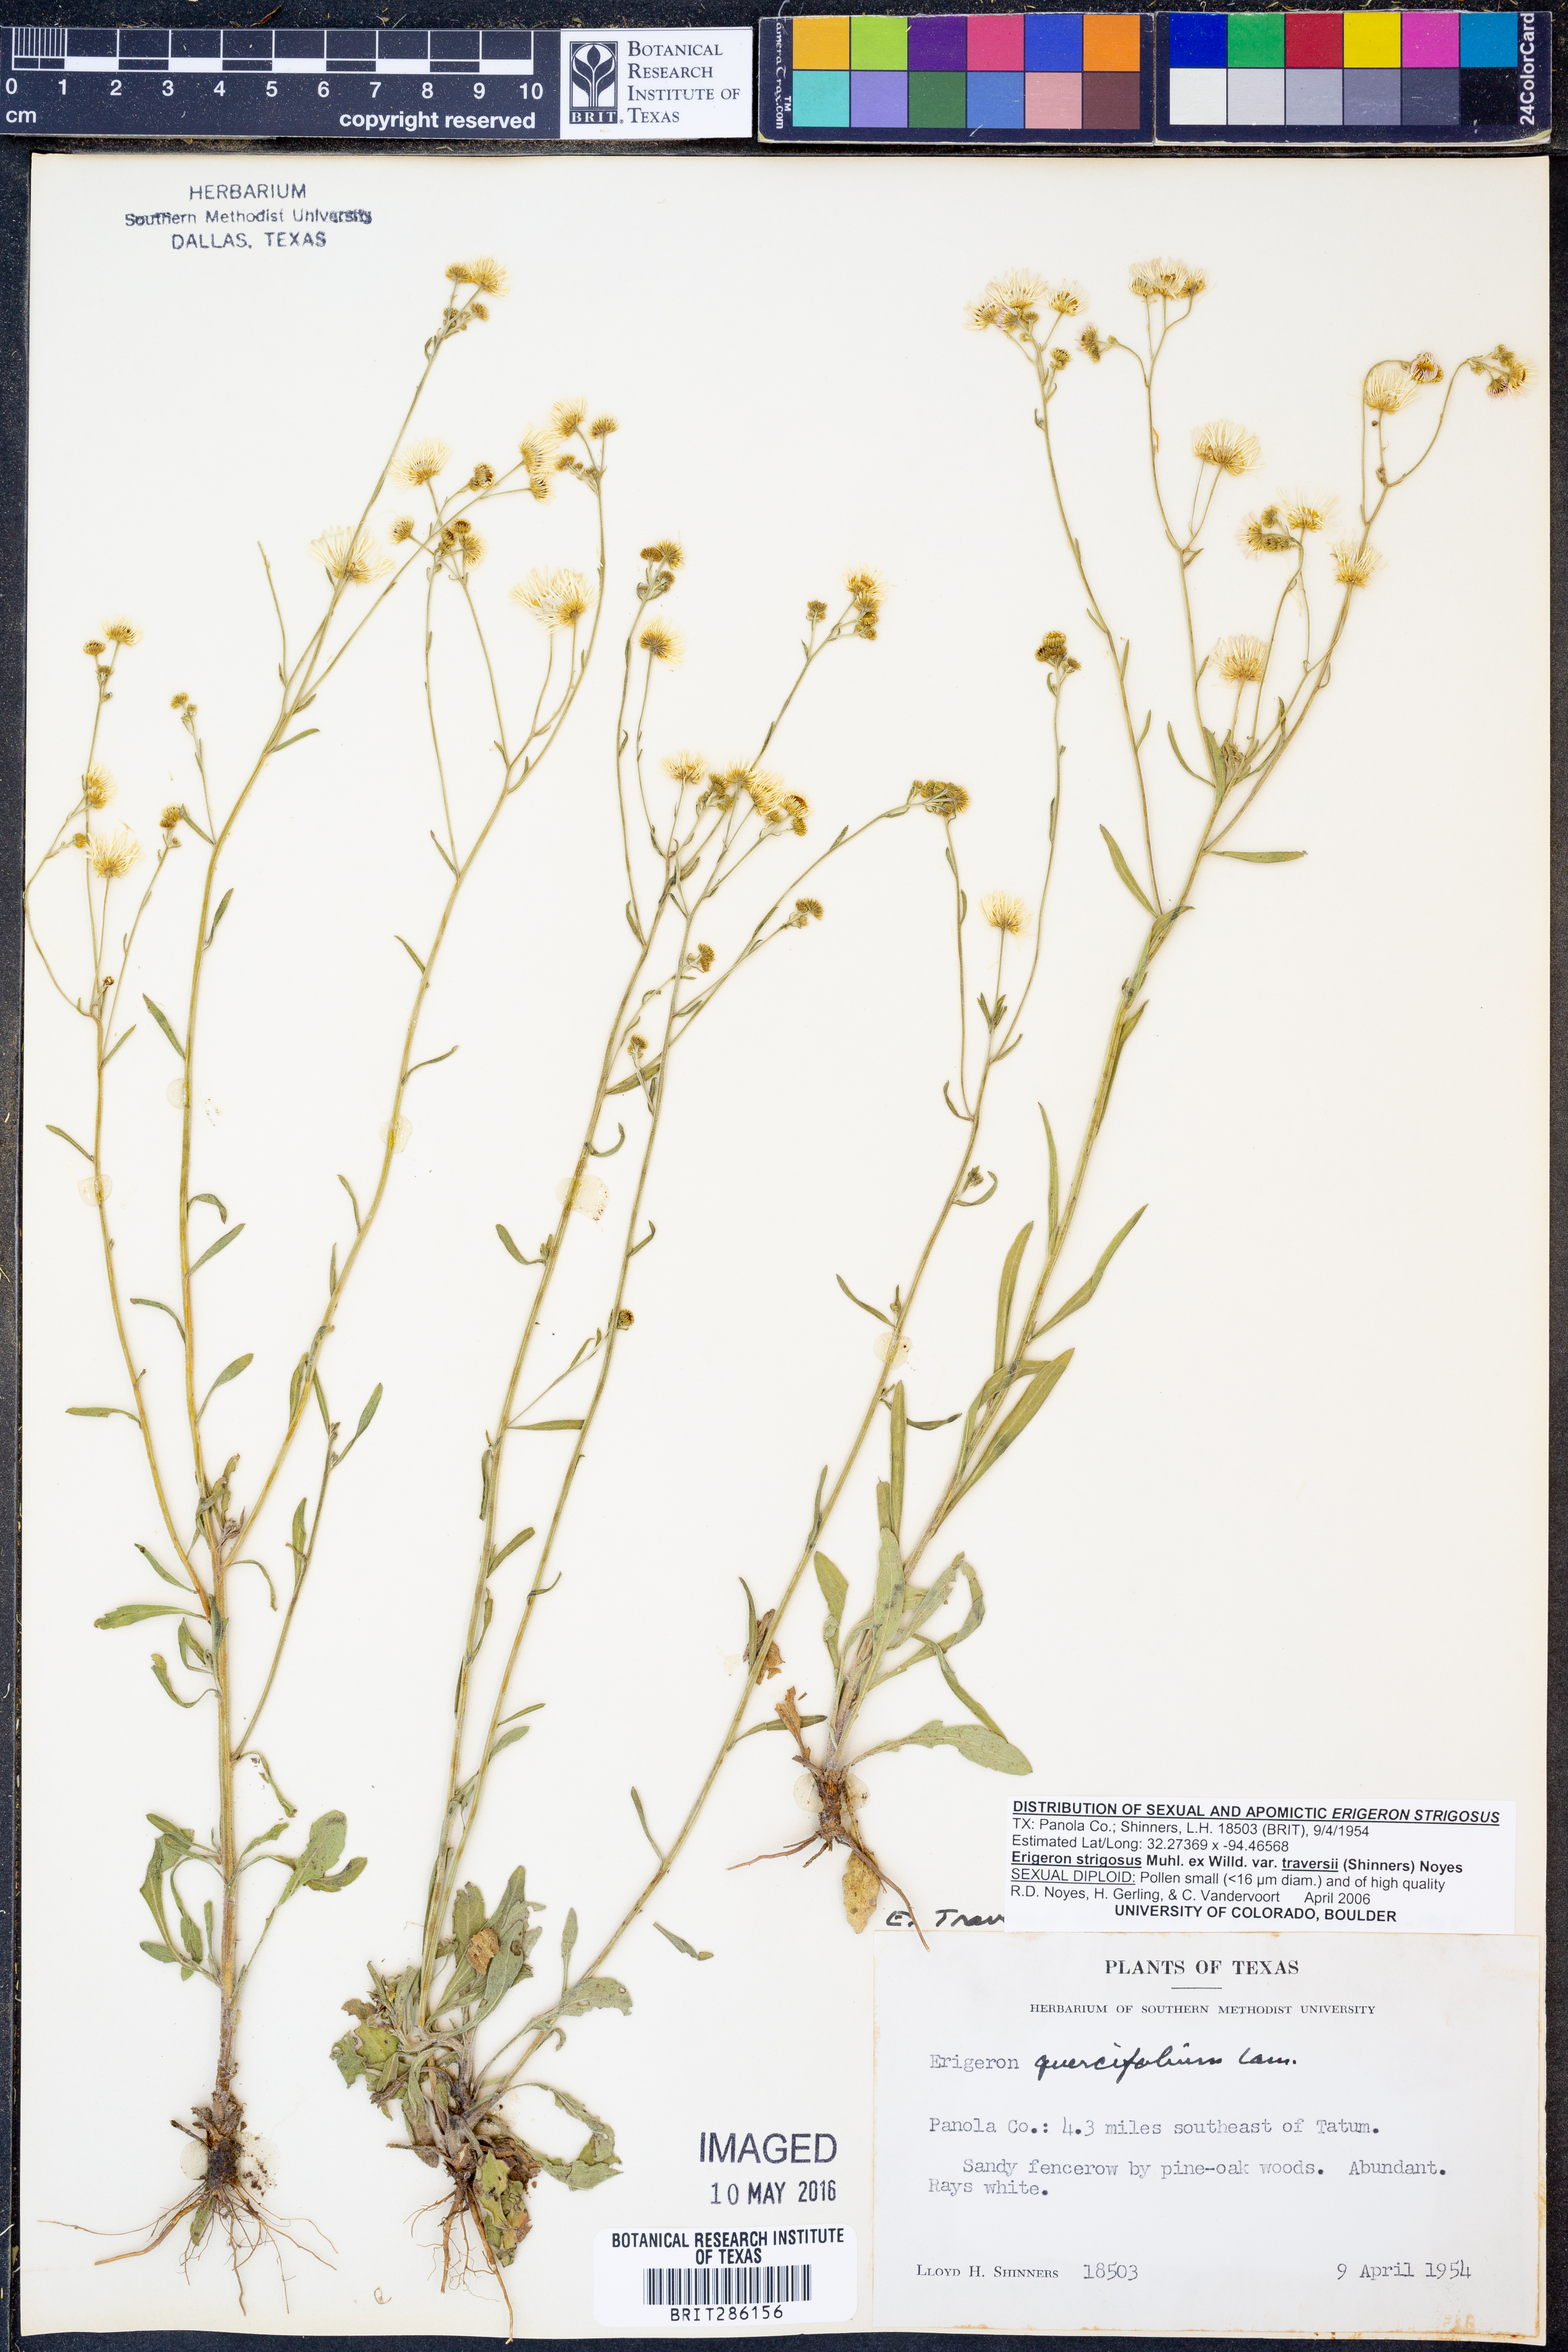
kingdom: Plantae
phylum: Tracheophyta
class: Magnoliopsida
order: Asterales
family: Asteraceae
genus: Erigeron
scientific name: Erigeron annuus
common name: Tall fleabane
